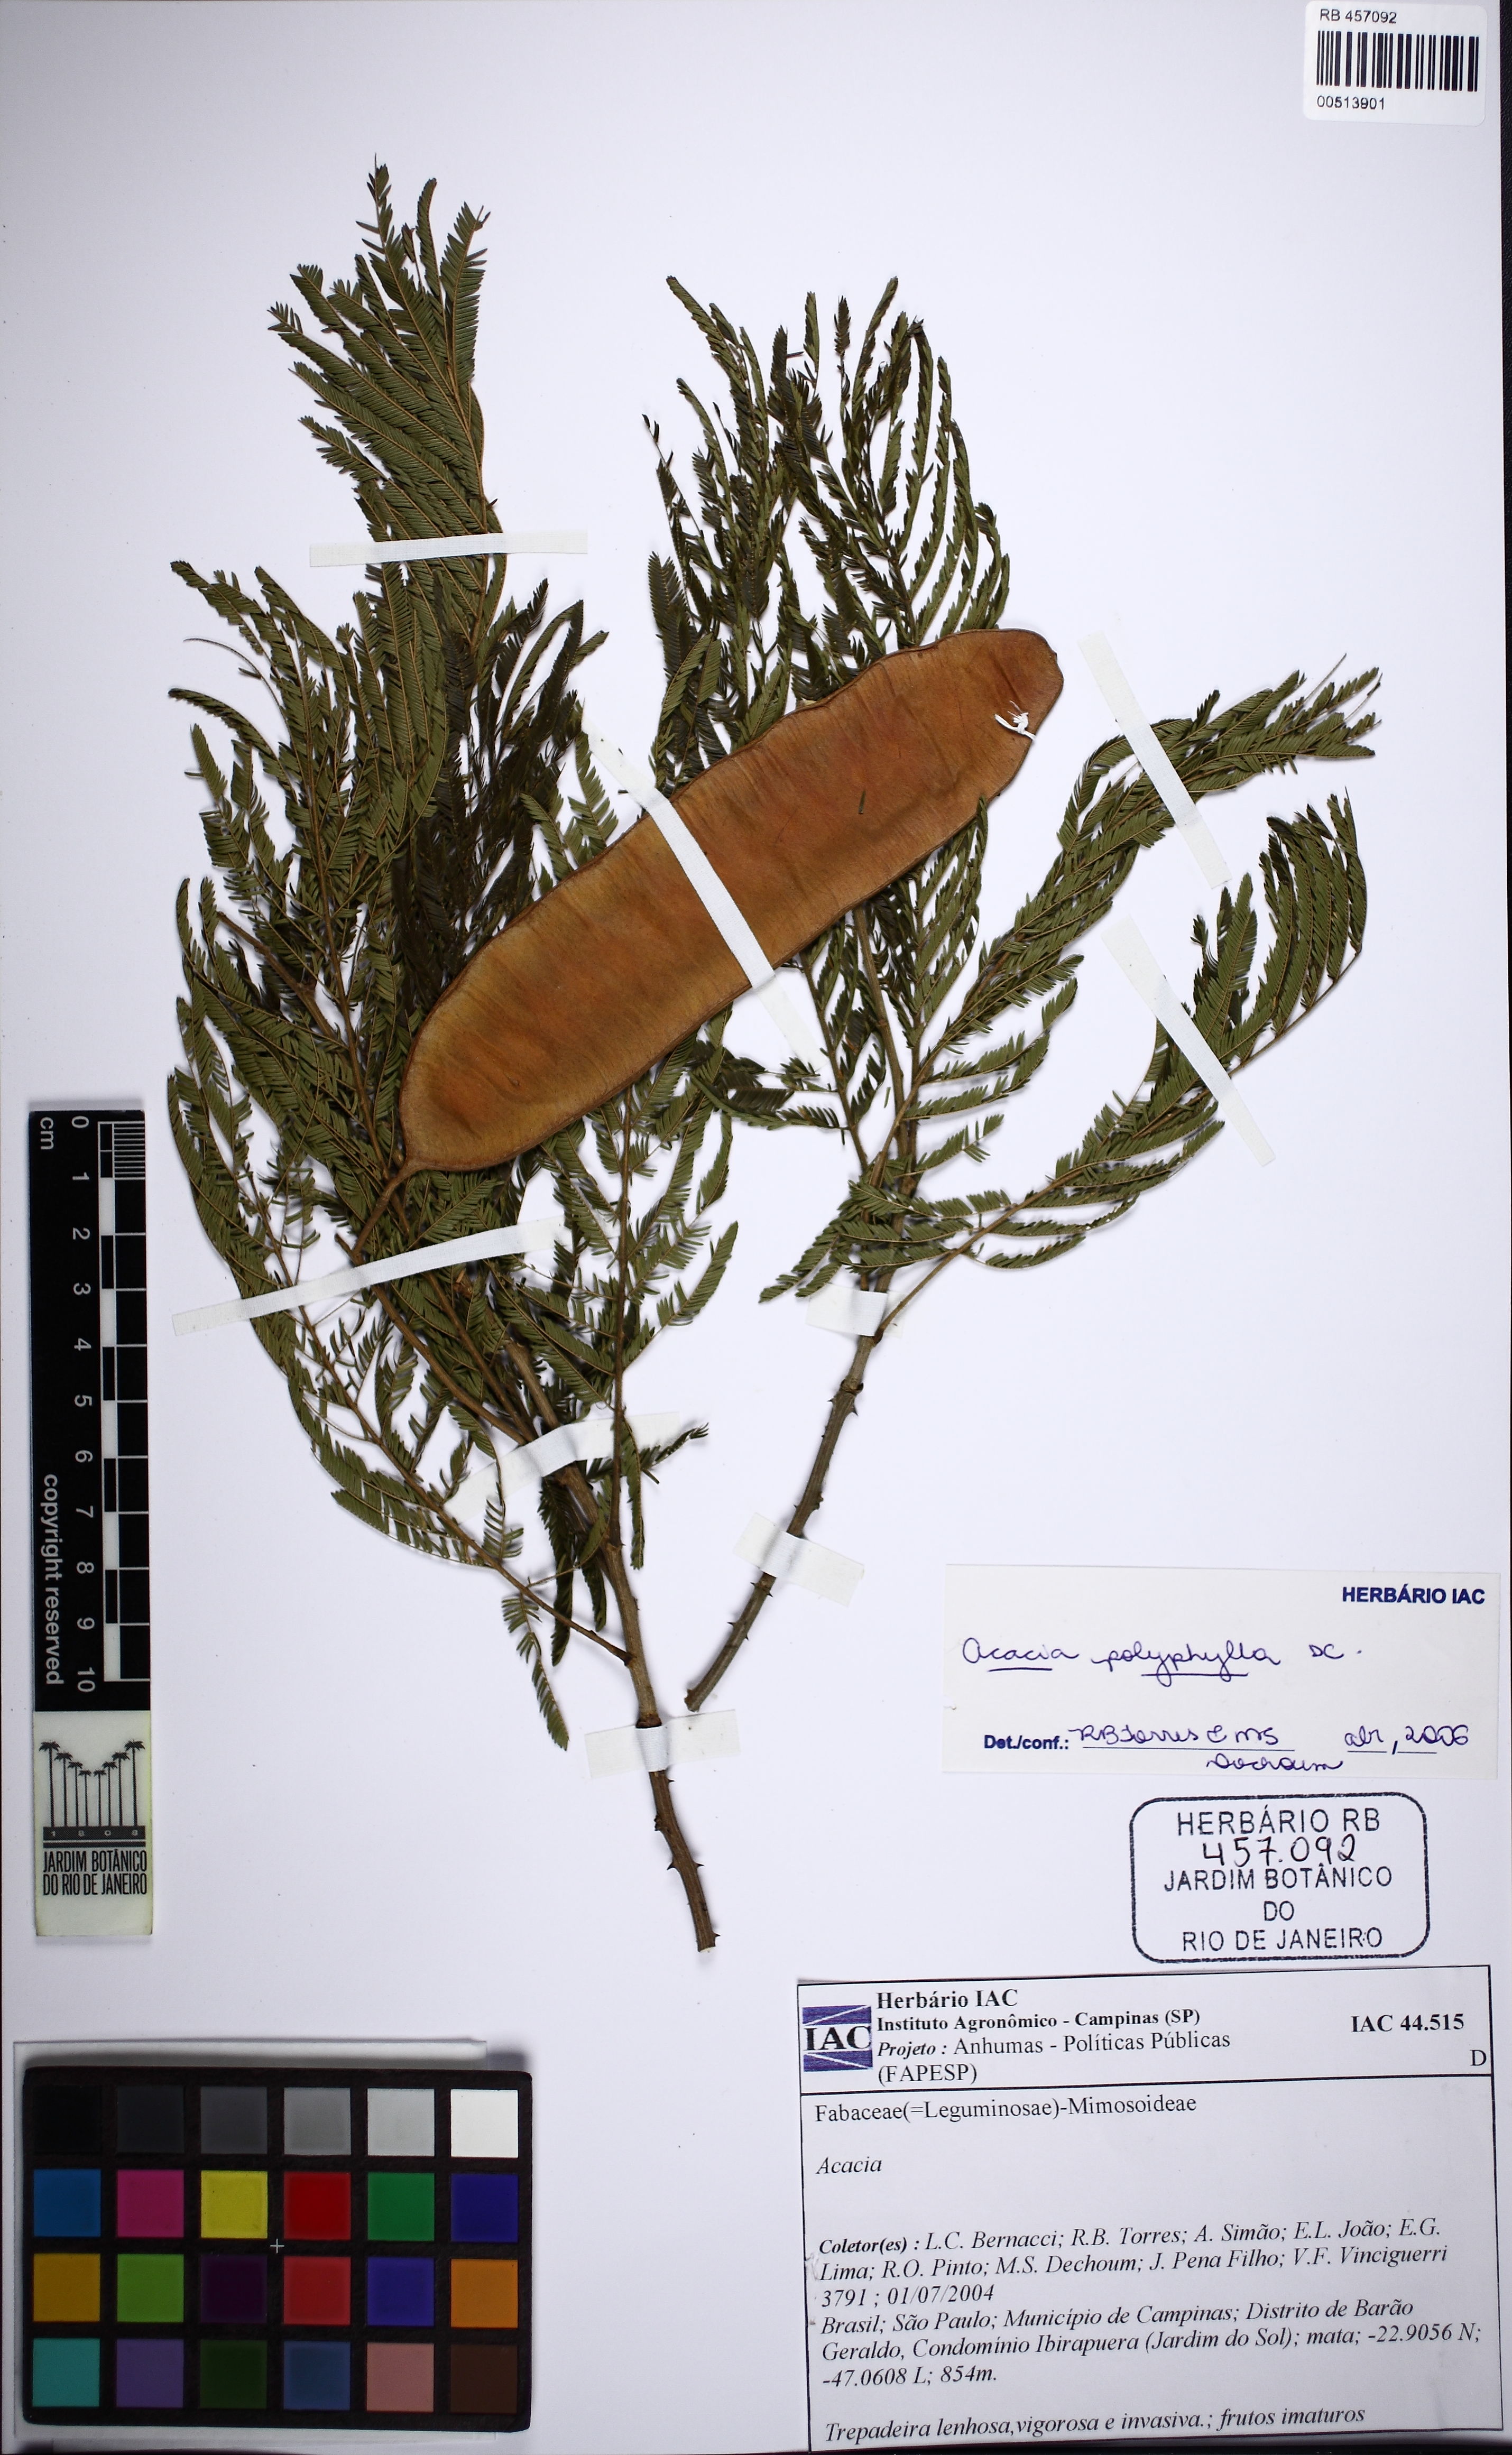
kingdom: Plantae
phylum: Tracheophyta
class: Magnoliopsida
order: Fabales
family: Fabaceae
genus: Senegalia
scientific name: Senegalia polyphylla
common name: White-tamarind
